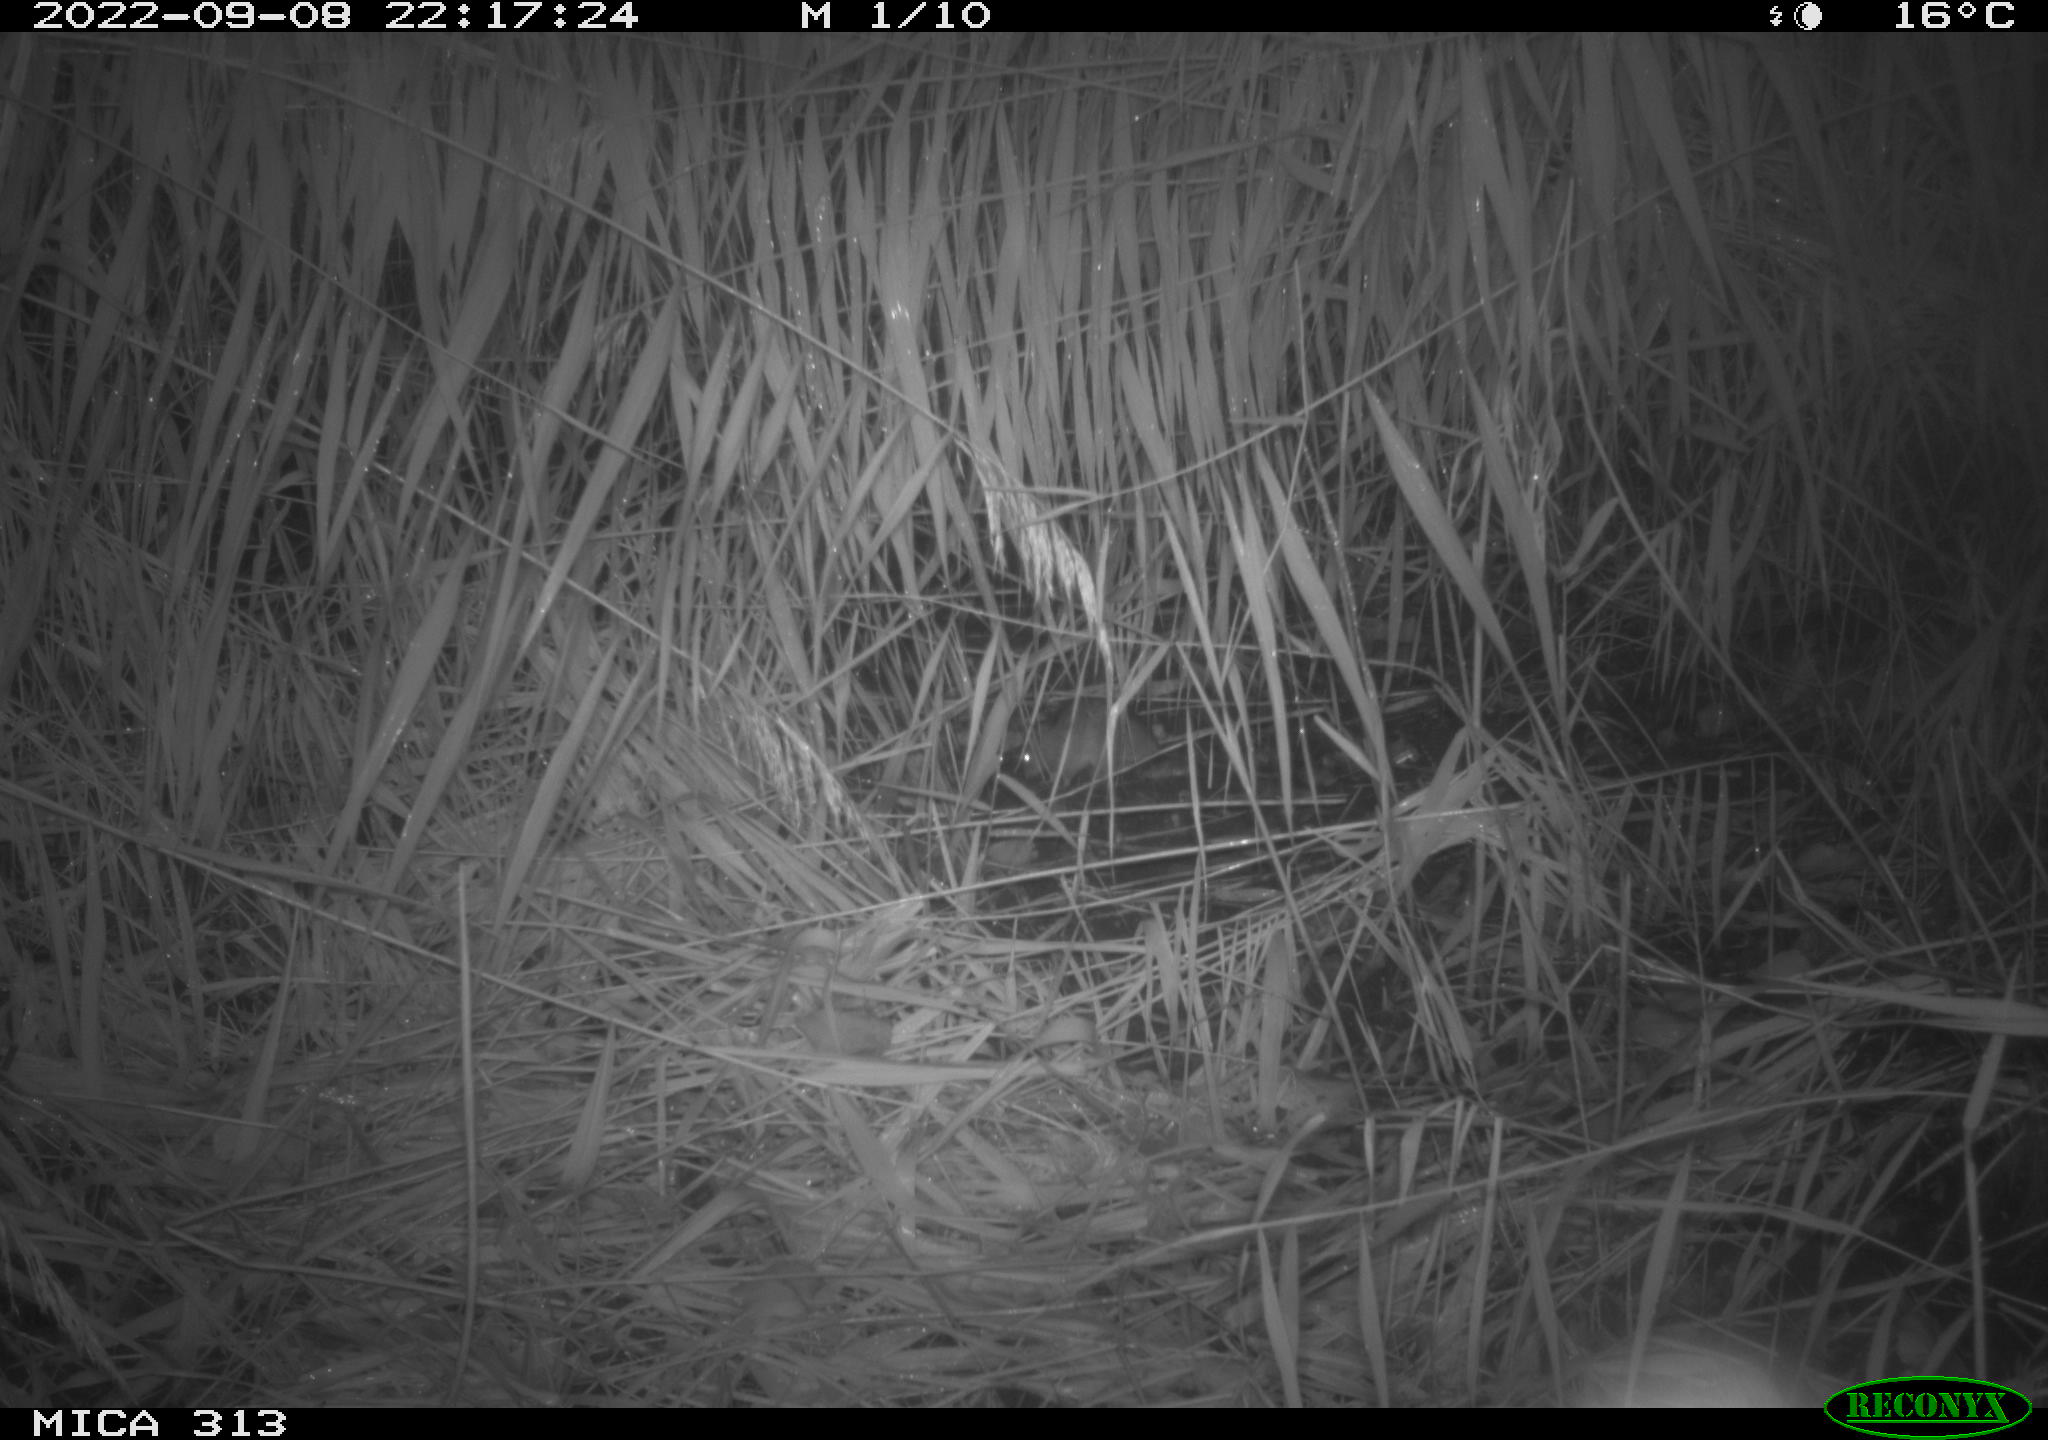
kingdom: Animalia
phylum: Chordata
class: Mammalia
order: Rodentia
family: Muridae
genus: Rattus
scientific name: Rattus norvegicus
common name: Brown rat
